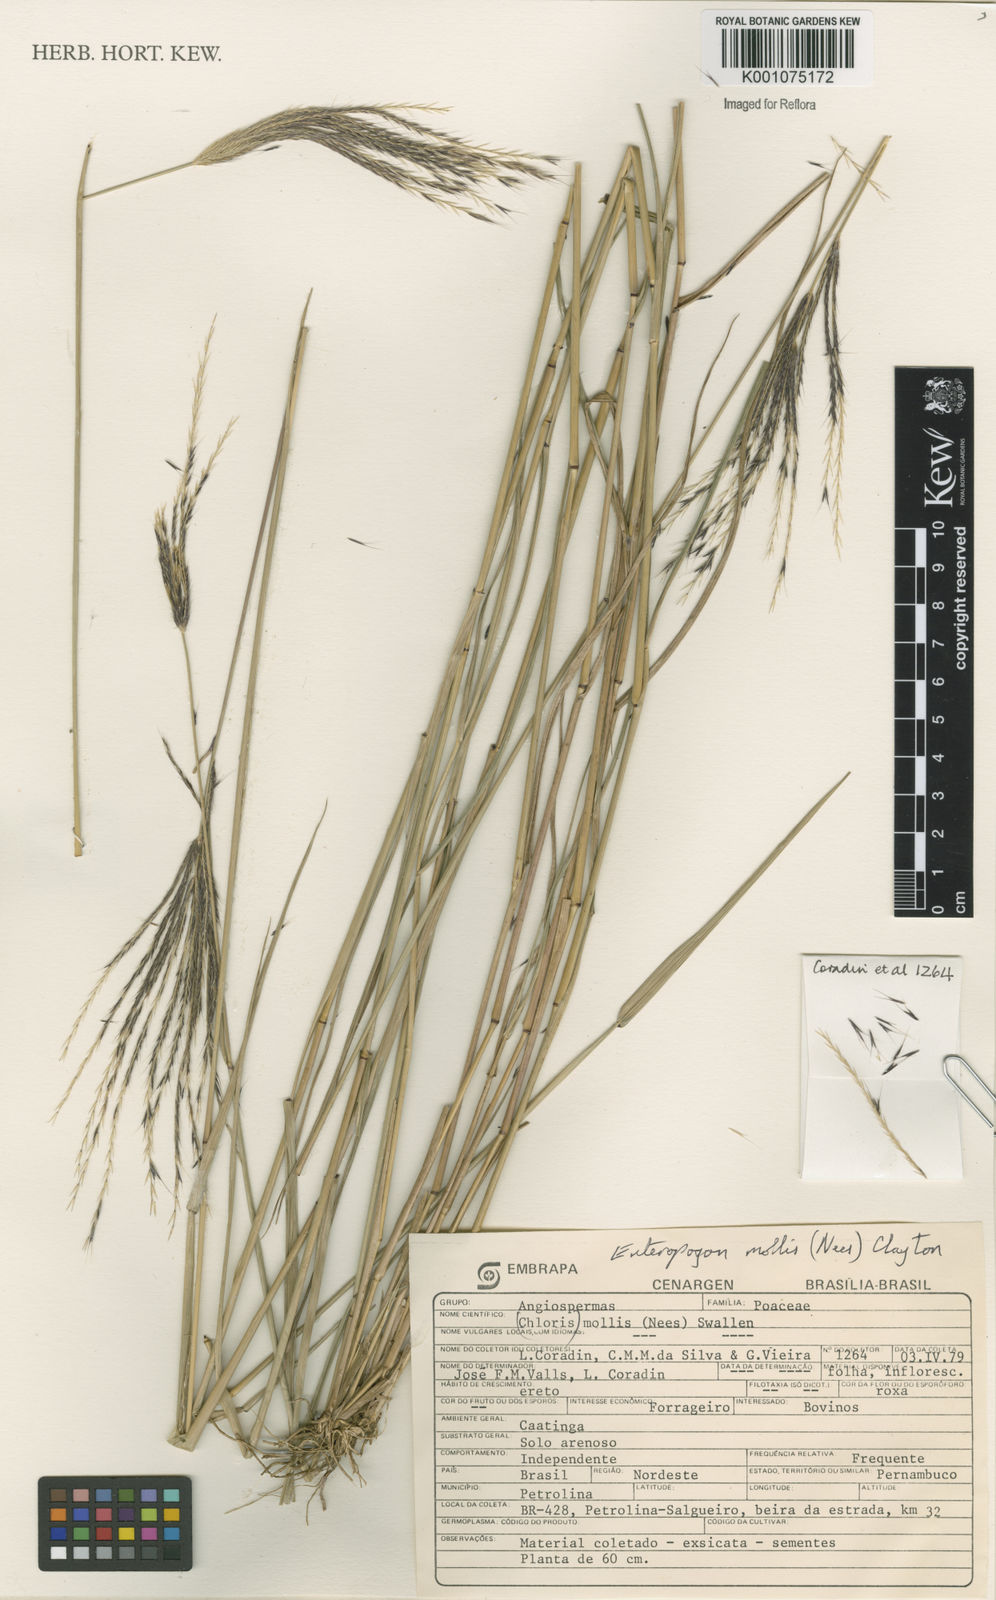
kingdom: Plantae
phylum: Tracheophyta
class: Liliopsida
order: Poales
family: Poaceae
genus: Leptochloa
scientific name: Leptochloa anisopoda
